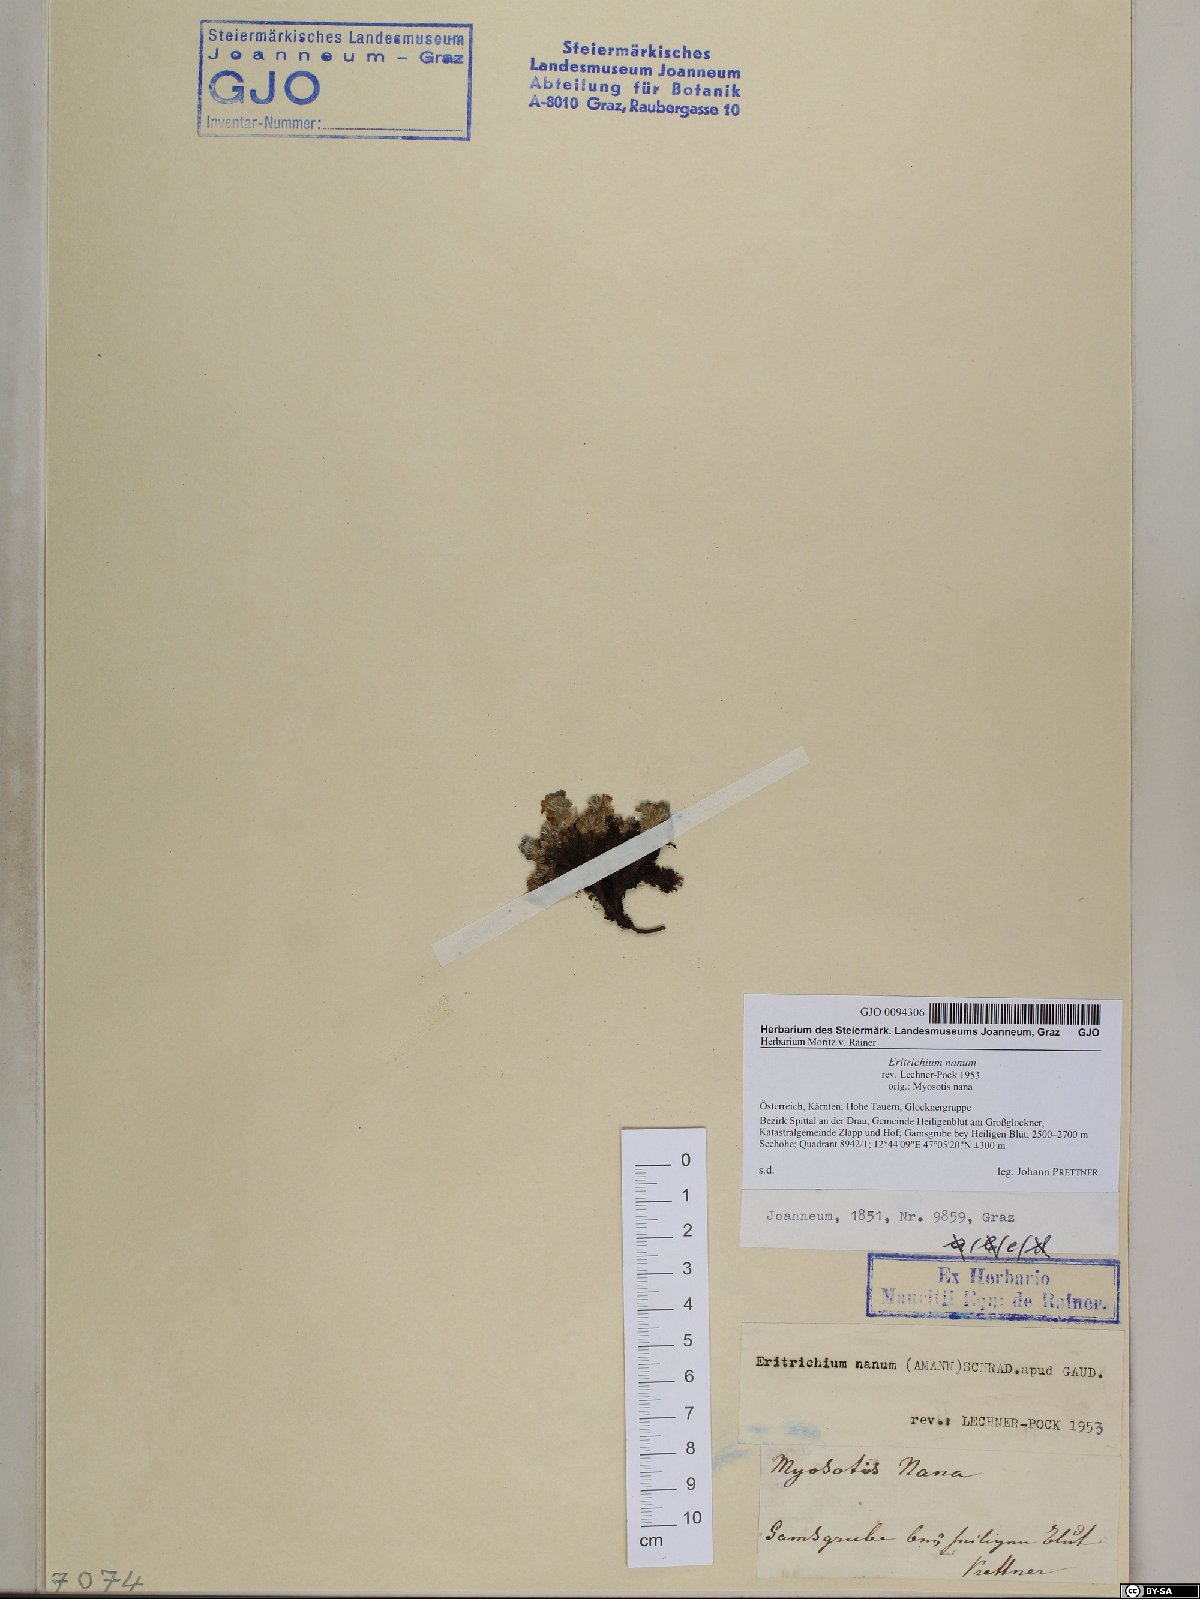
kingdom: Plantae
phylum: Tracheophyta
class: Magnoliopsida
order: Boraginales
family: Boraginaceae
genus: Eritrichium
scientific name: Eritrichium nanum
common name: King-of-the-alps
